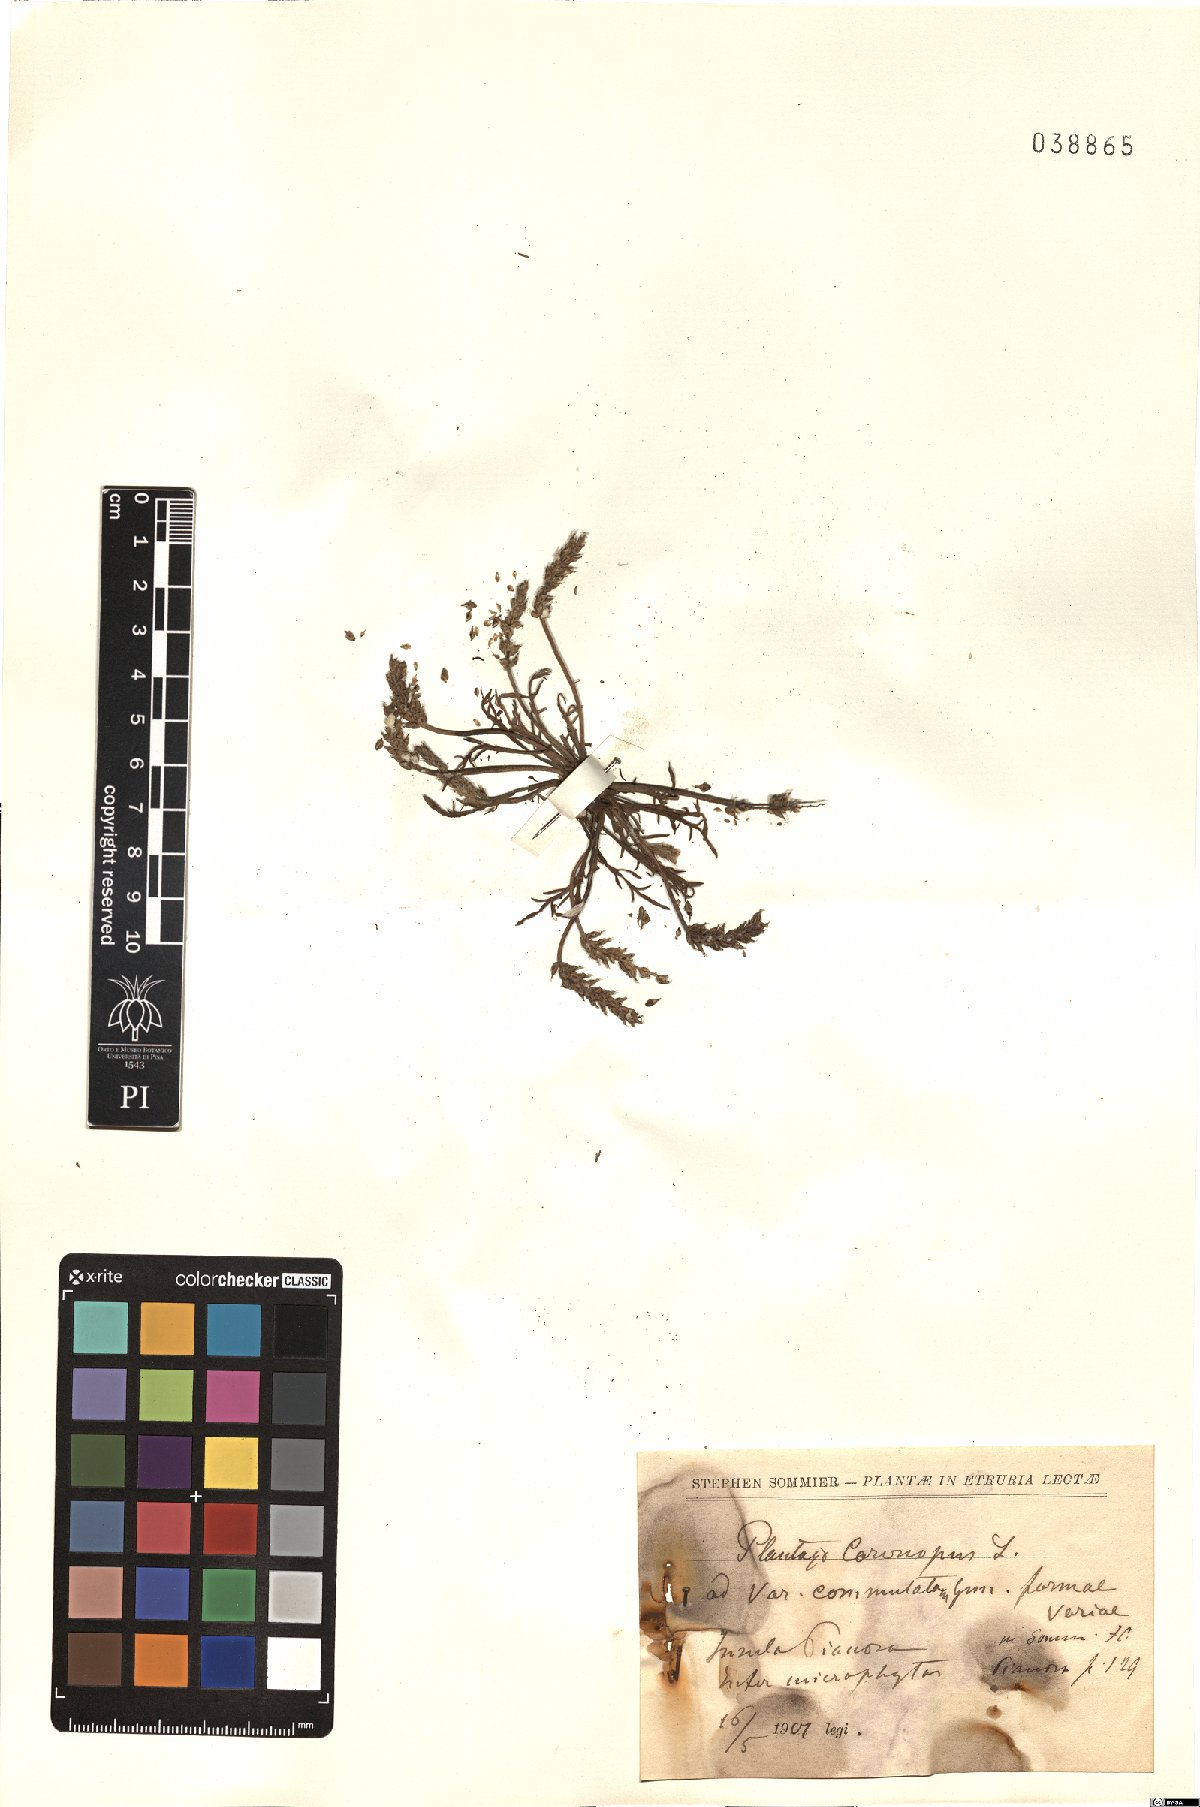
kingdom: Plantae
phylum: Tracheophyta
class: Magnoliopsida
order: Lamiales
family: Plantaginaceae
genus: Plantago
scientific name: Plantago weldenii
